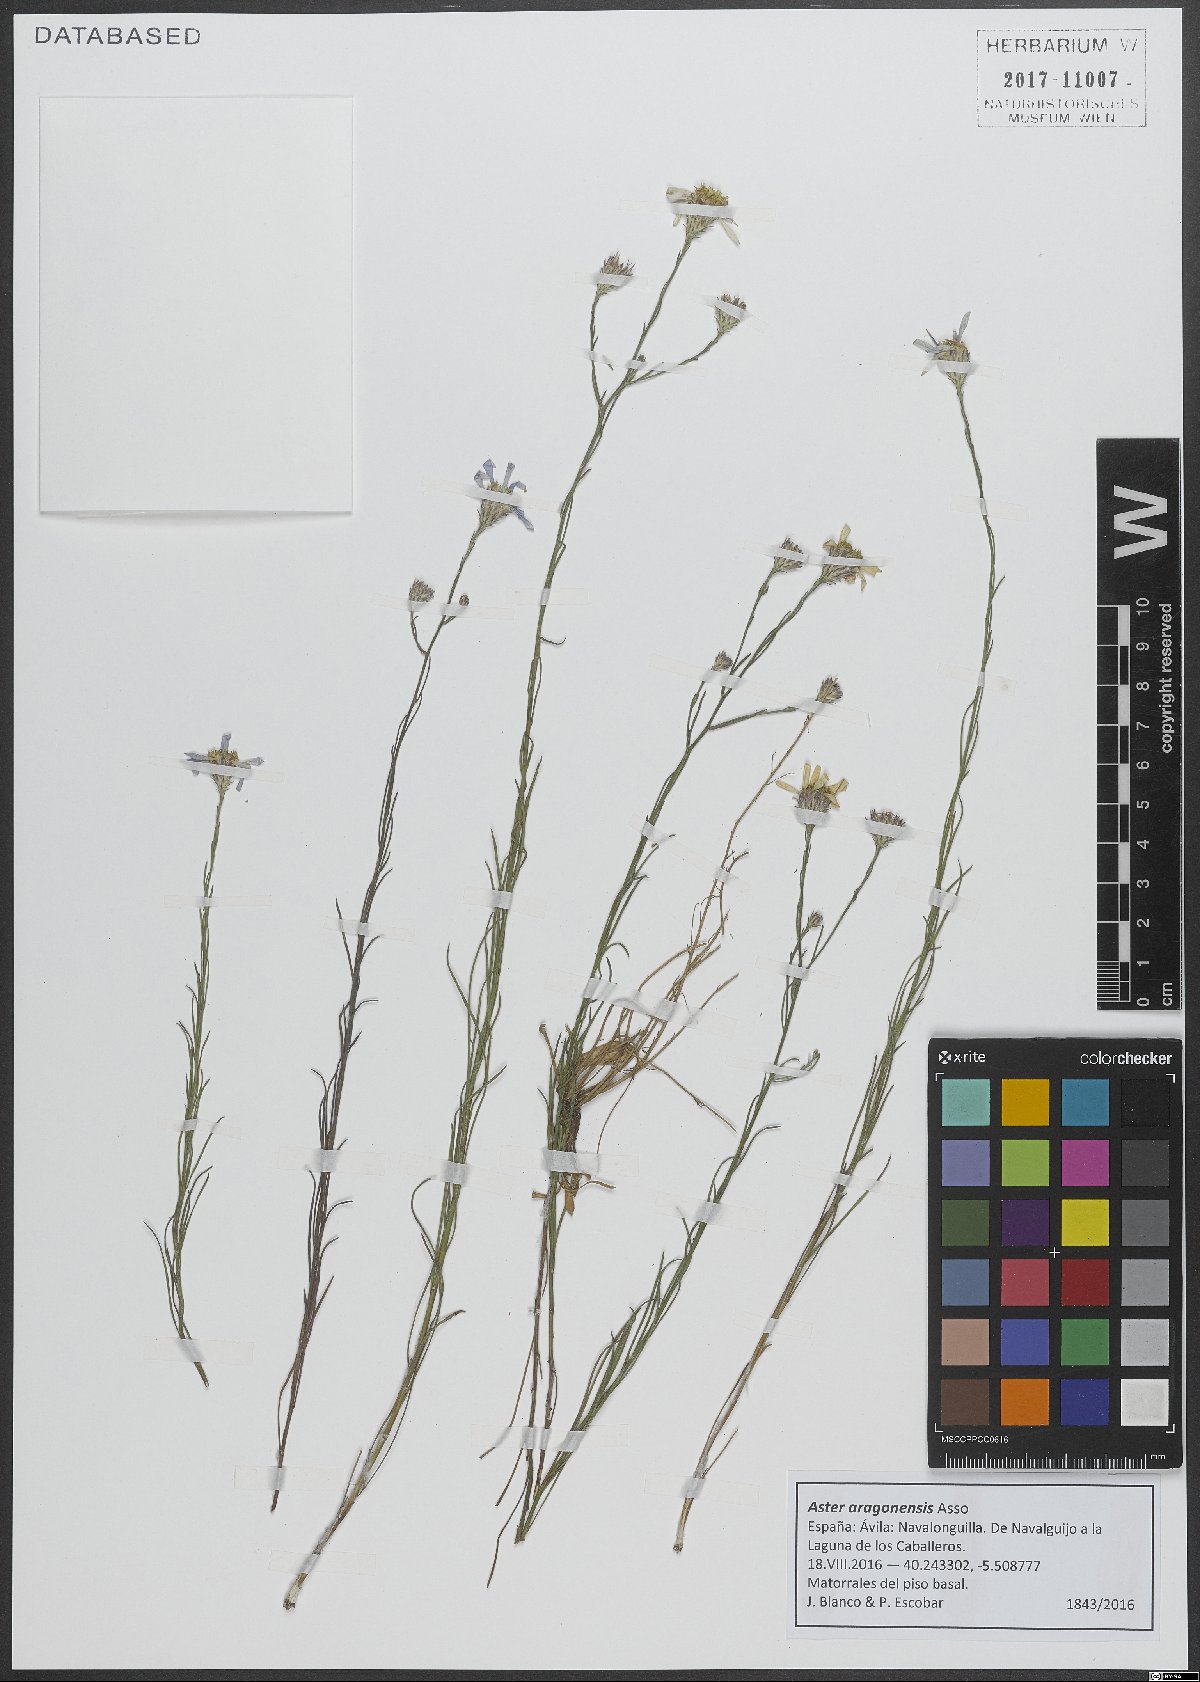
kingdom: Plantae
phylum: Tracheophyta
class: Magnoliopsida
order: Asterales
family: Asteraceae
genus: Galatella
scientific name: Galatella aragonensis
